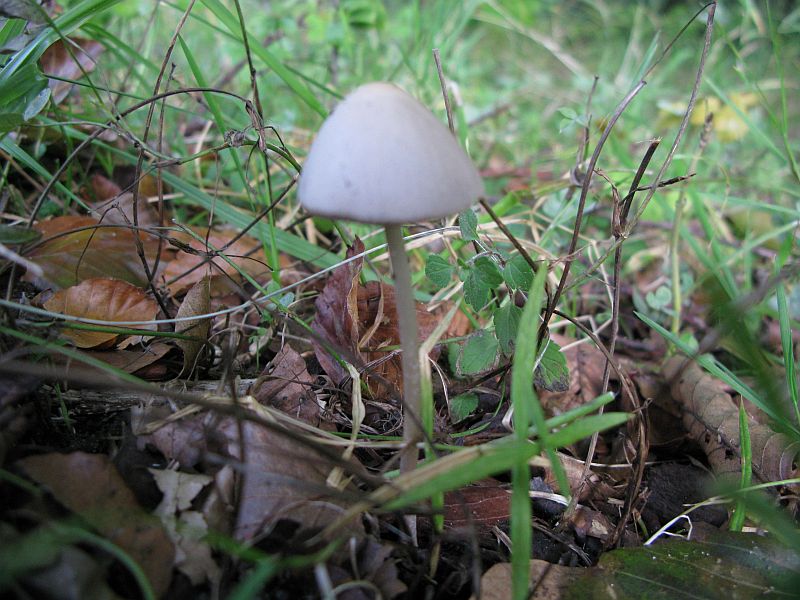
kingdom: Fungi
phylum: Basidiomycota
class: Agaricomycetes
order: Agaricales
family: Psathyrellaceae
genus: Parasola
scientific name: Parasola conopilea
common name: kegle-hjulhat
